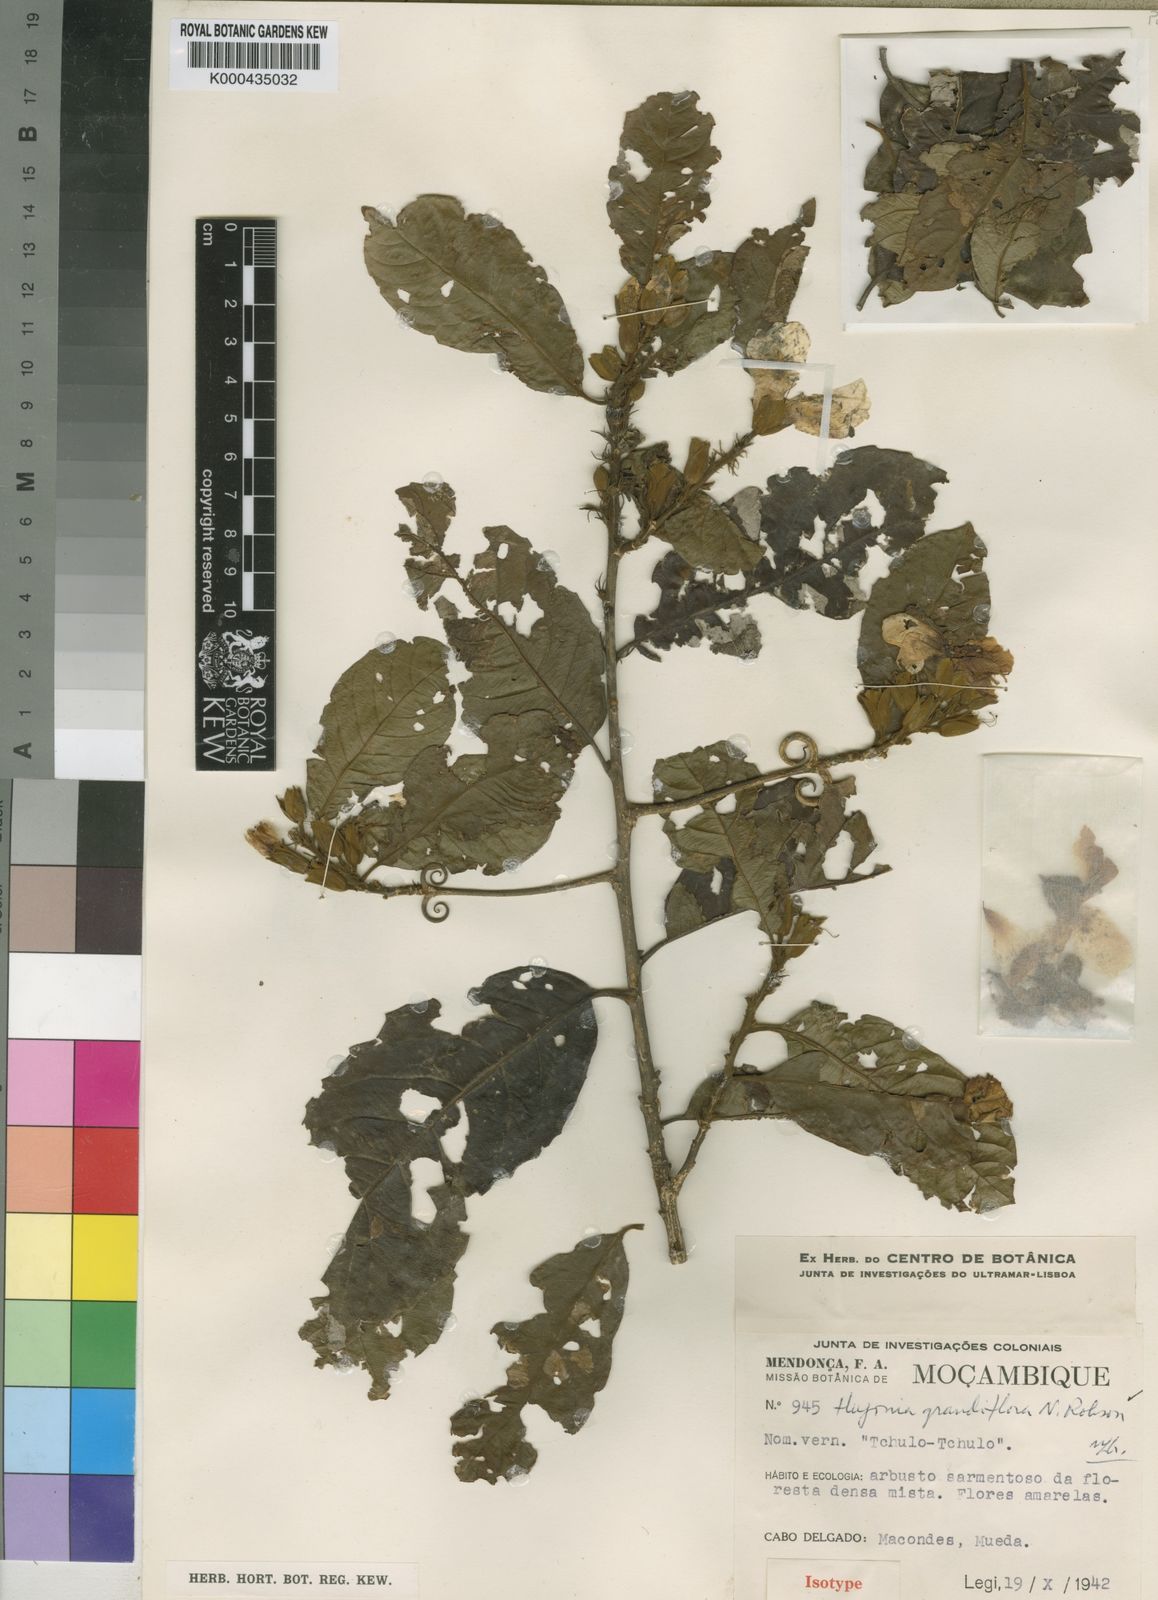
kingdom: Plantae
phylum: Tracheophyta
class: Magnoliopsida
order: Malpighiales
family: Linaceae
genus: Hugonia
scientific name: Hugonia grandiflora
